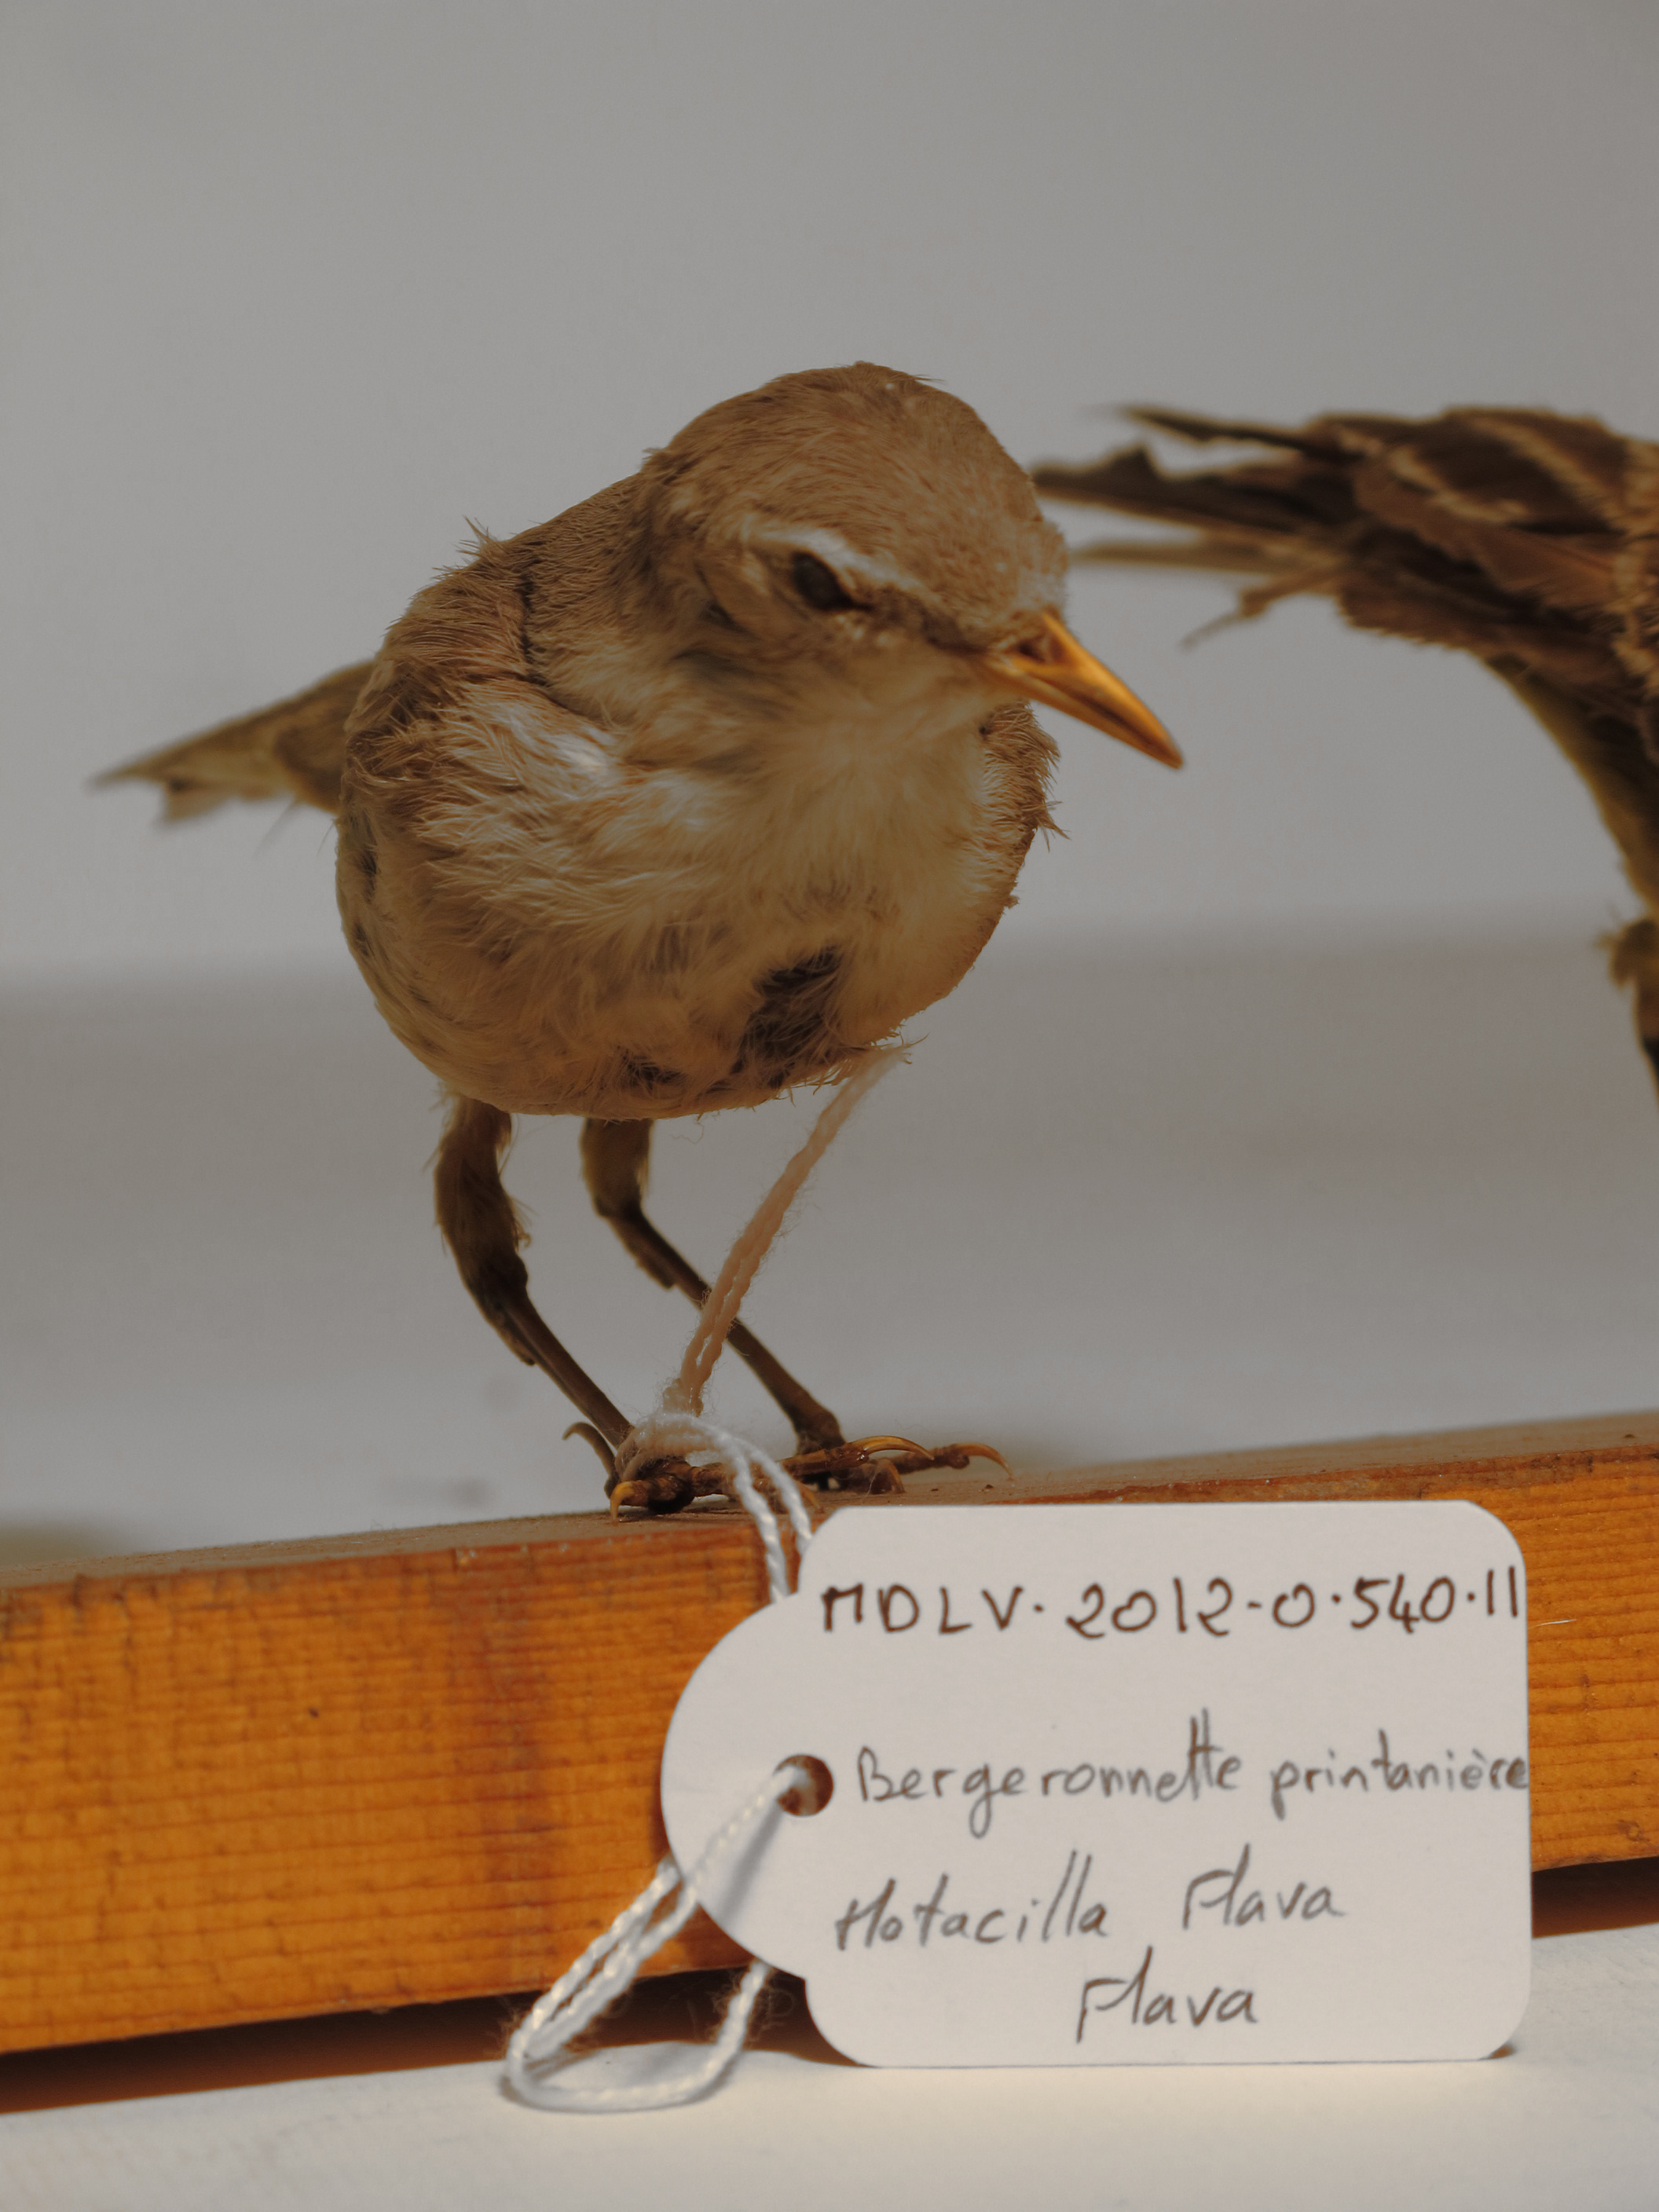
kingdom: Animalia
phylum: Chordata
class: Aves
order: Passeriformes
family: Motacillidae
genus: Motacilla
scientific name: Motacilla flava
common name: Yellow Wagtail
